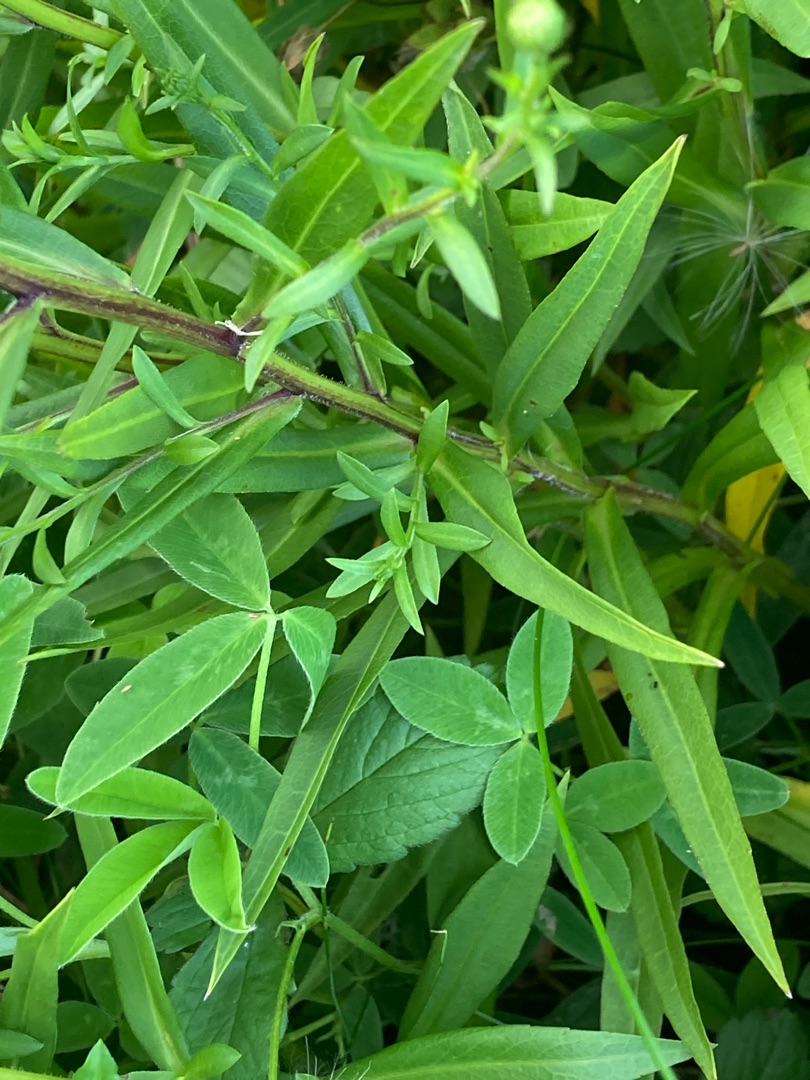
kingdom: Plantae
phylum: Tracheophyta
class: Magnoliopsida
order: Asterales
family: Asteraceae
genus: Symphyotrichum
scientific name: Symphyotrichum laeve
